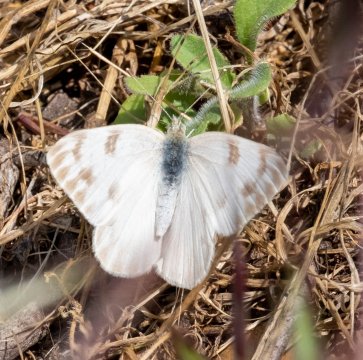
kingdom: Animalia
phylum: Arthropoda
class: Insecta
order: Lepidoptera
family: Pieridae
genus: Pontia
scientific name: Pontia protodice
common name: Checkered White
